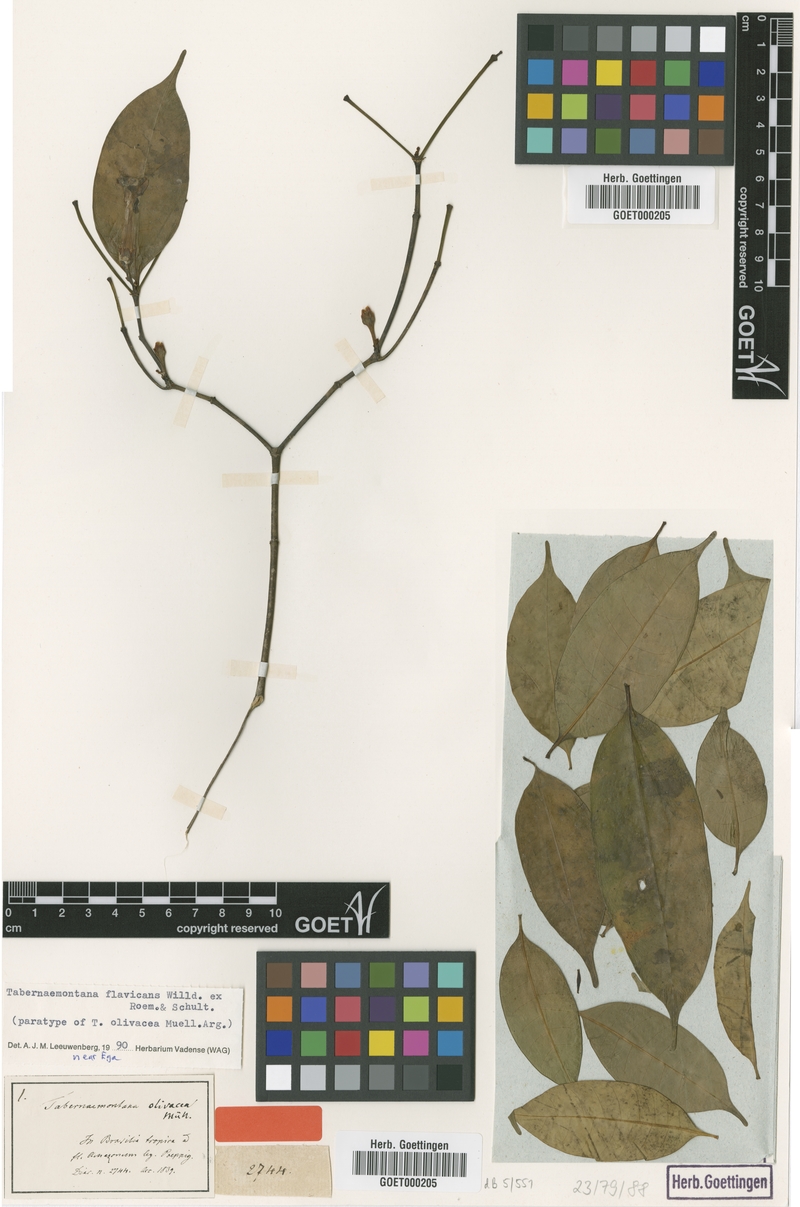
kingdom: Plantae
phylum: Tracheophyta
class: Magnoliopsida
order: Gentianales
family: Apocynaceae
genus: Tabernaemontana
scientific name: Tabernaemontana flavicans
